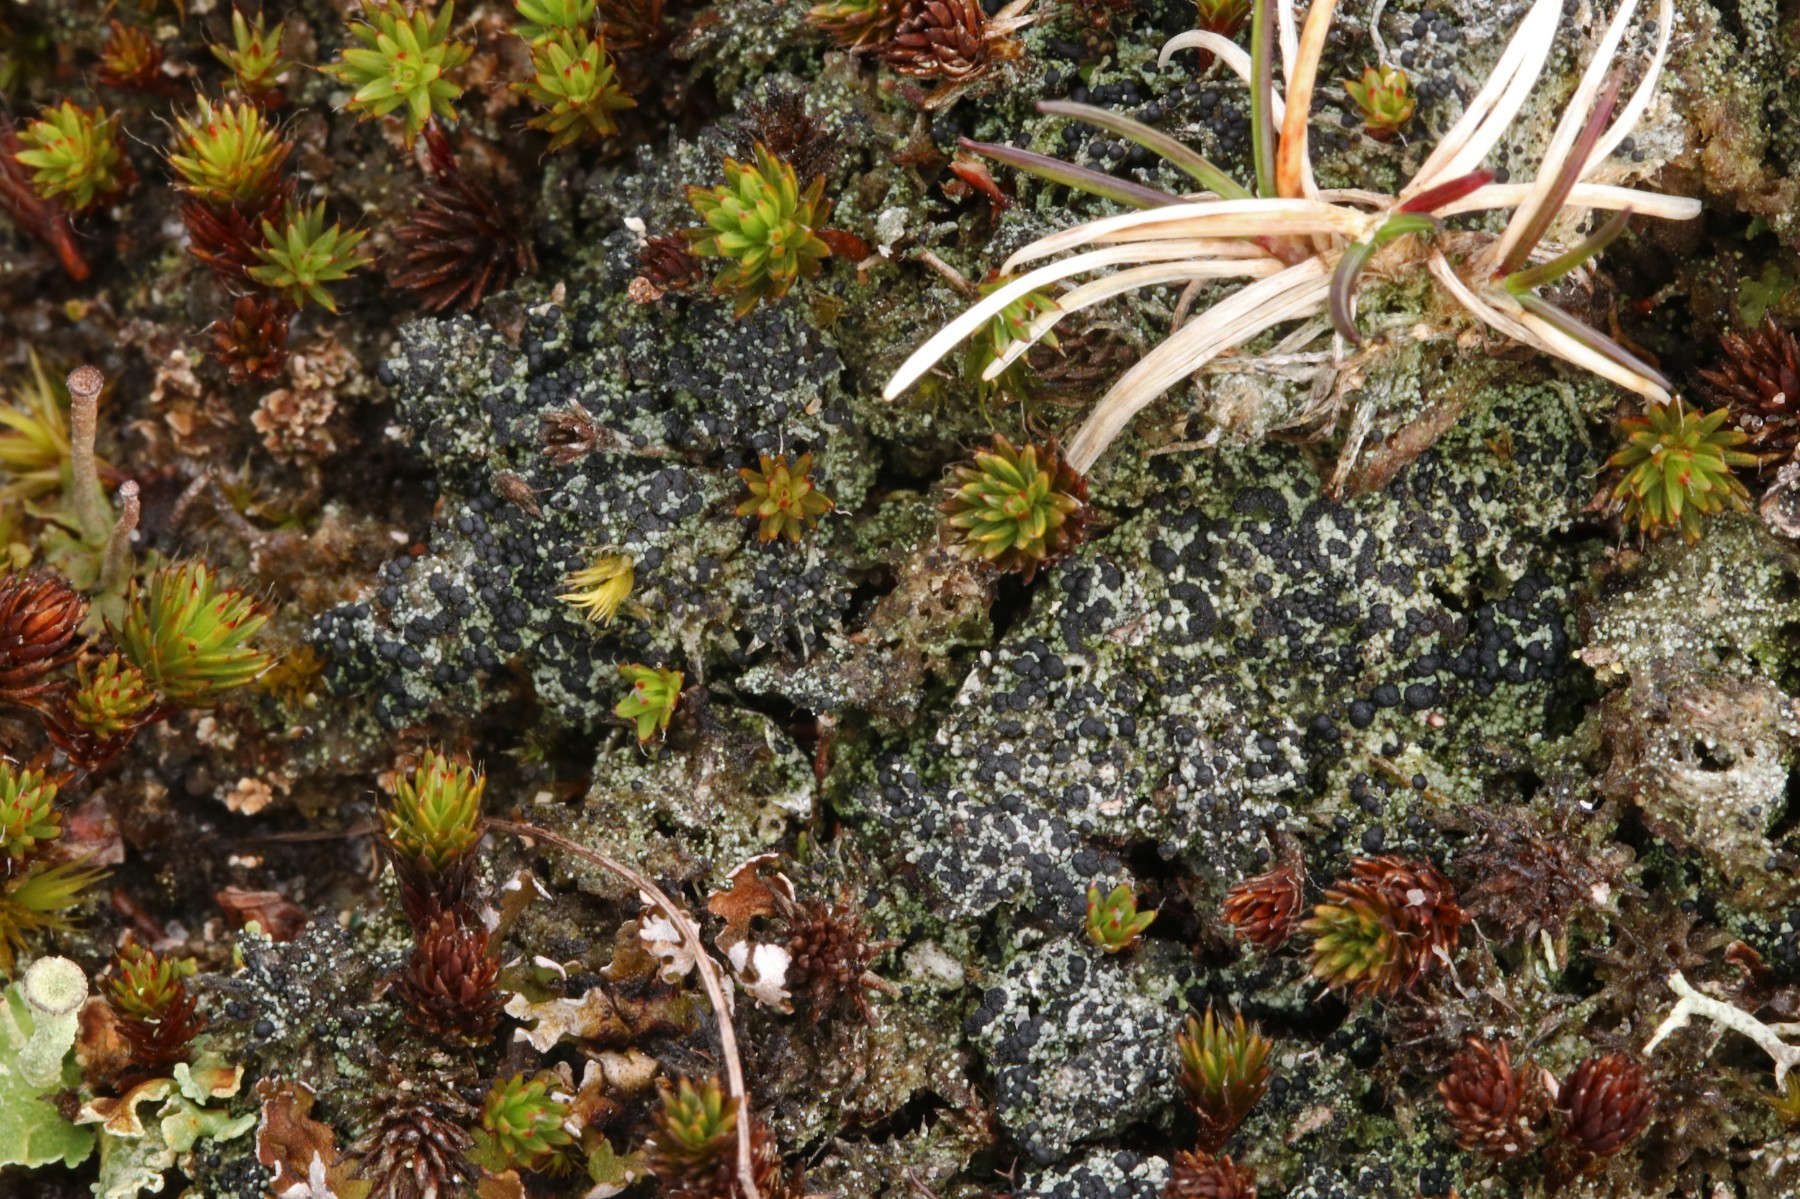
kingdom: Fungi
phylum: Ascomycota
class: Lecanoromycetes
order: Lecanorales
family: Byssolomataceae
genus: Micarea
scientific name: Micarea lignaria
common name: tørve-knaplav
